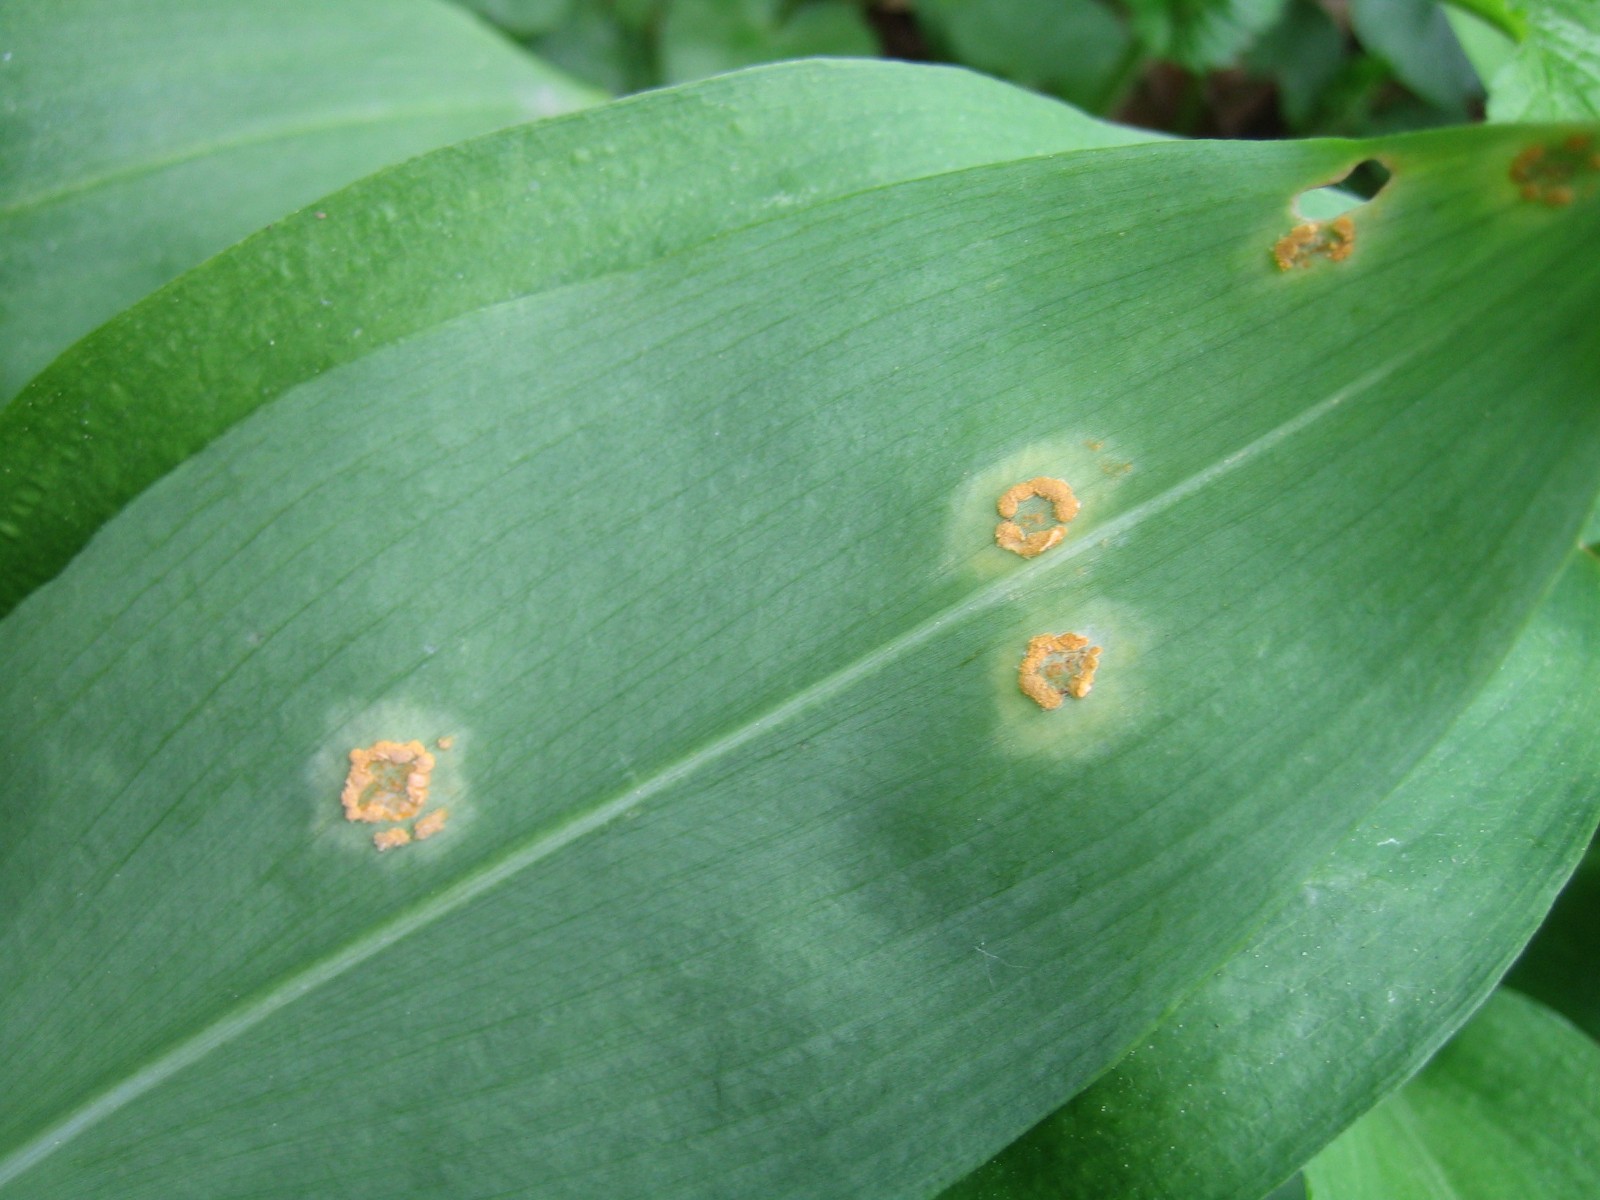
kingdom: Fungi
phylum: Basidiomycota
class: Pucciniomycetes
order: Pucciniales
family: Pucciniaceae
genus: Puccinia
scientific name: Puccinia sessilis
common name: Arum rust
